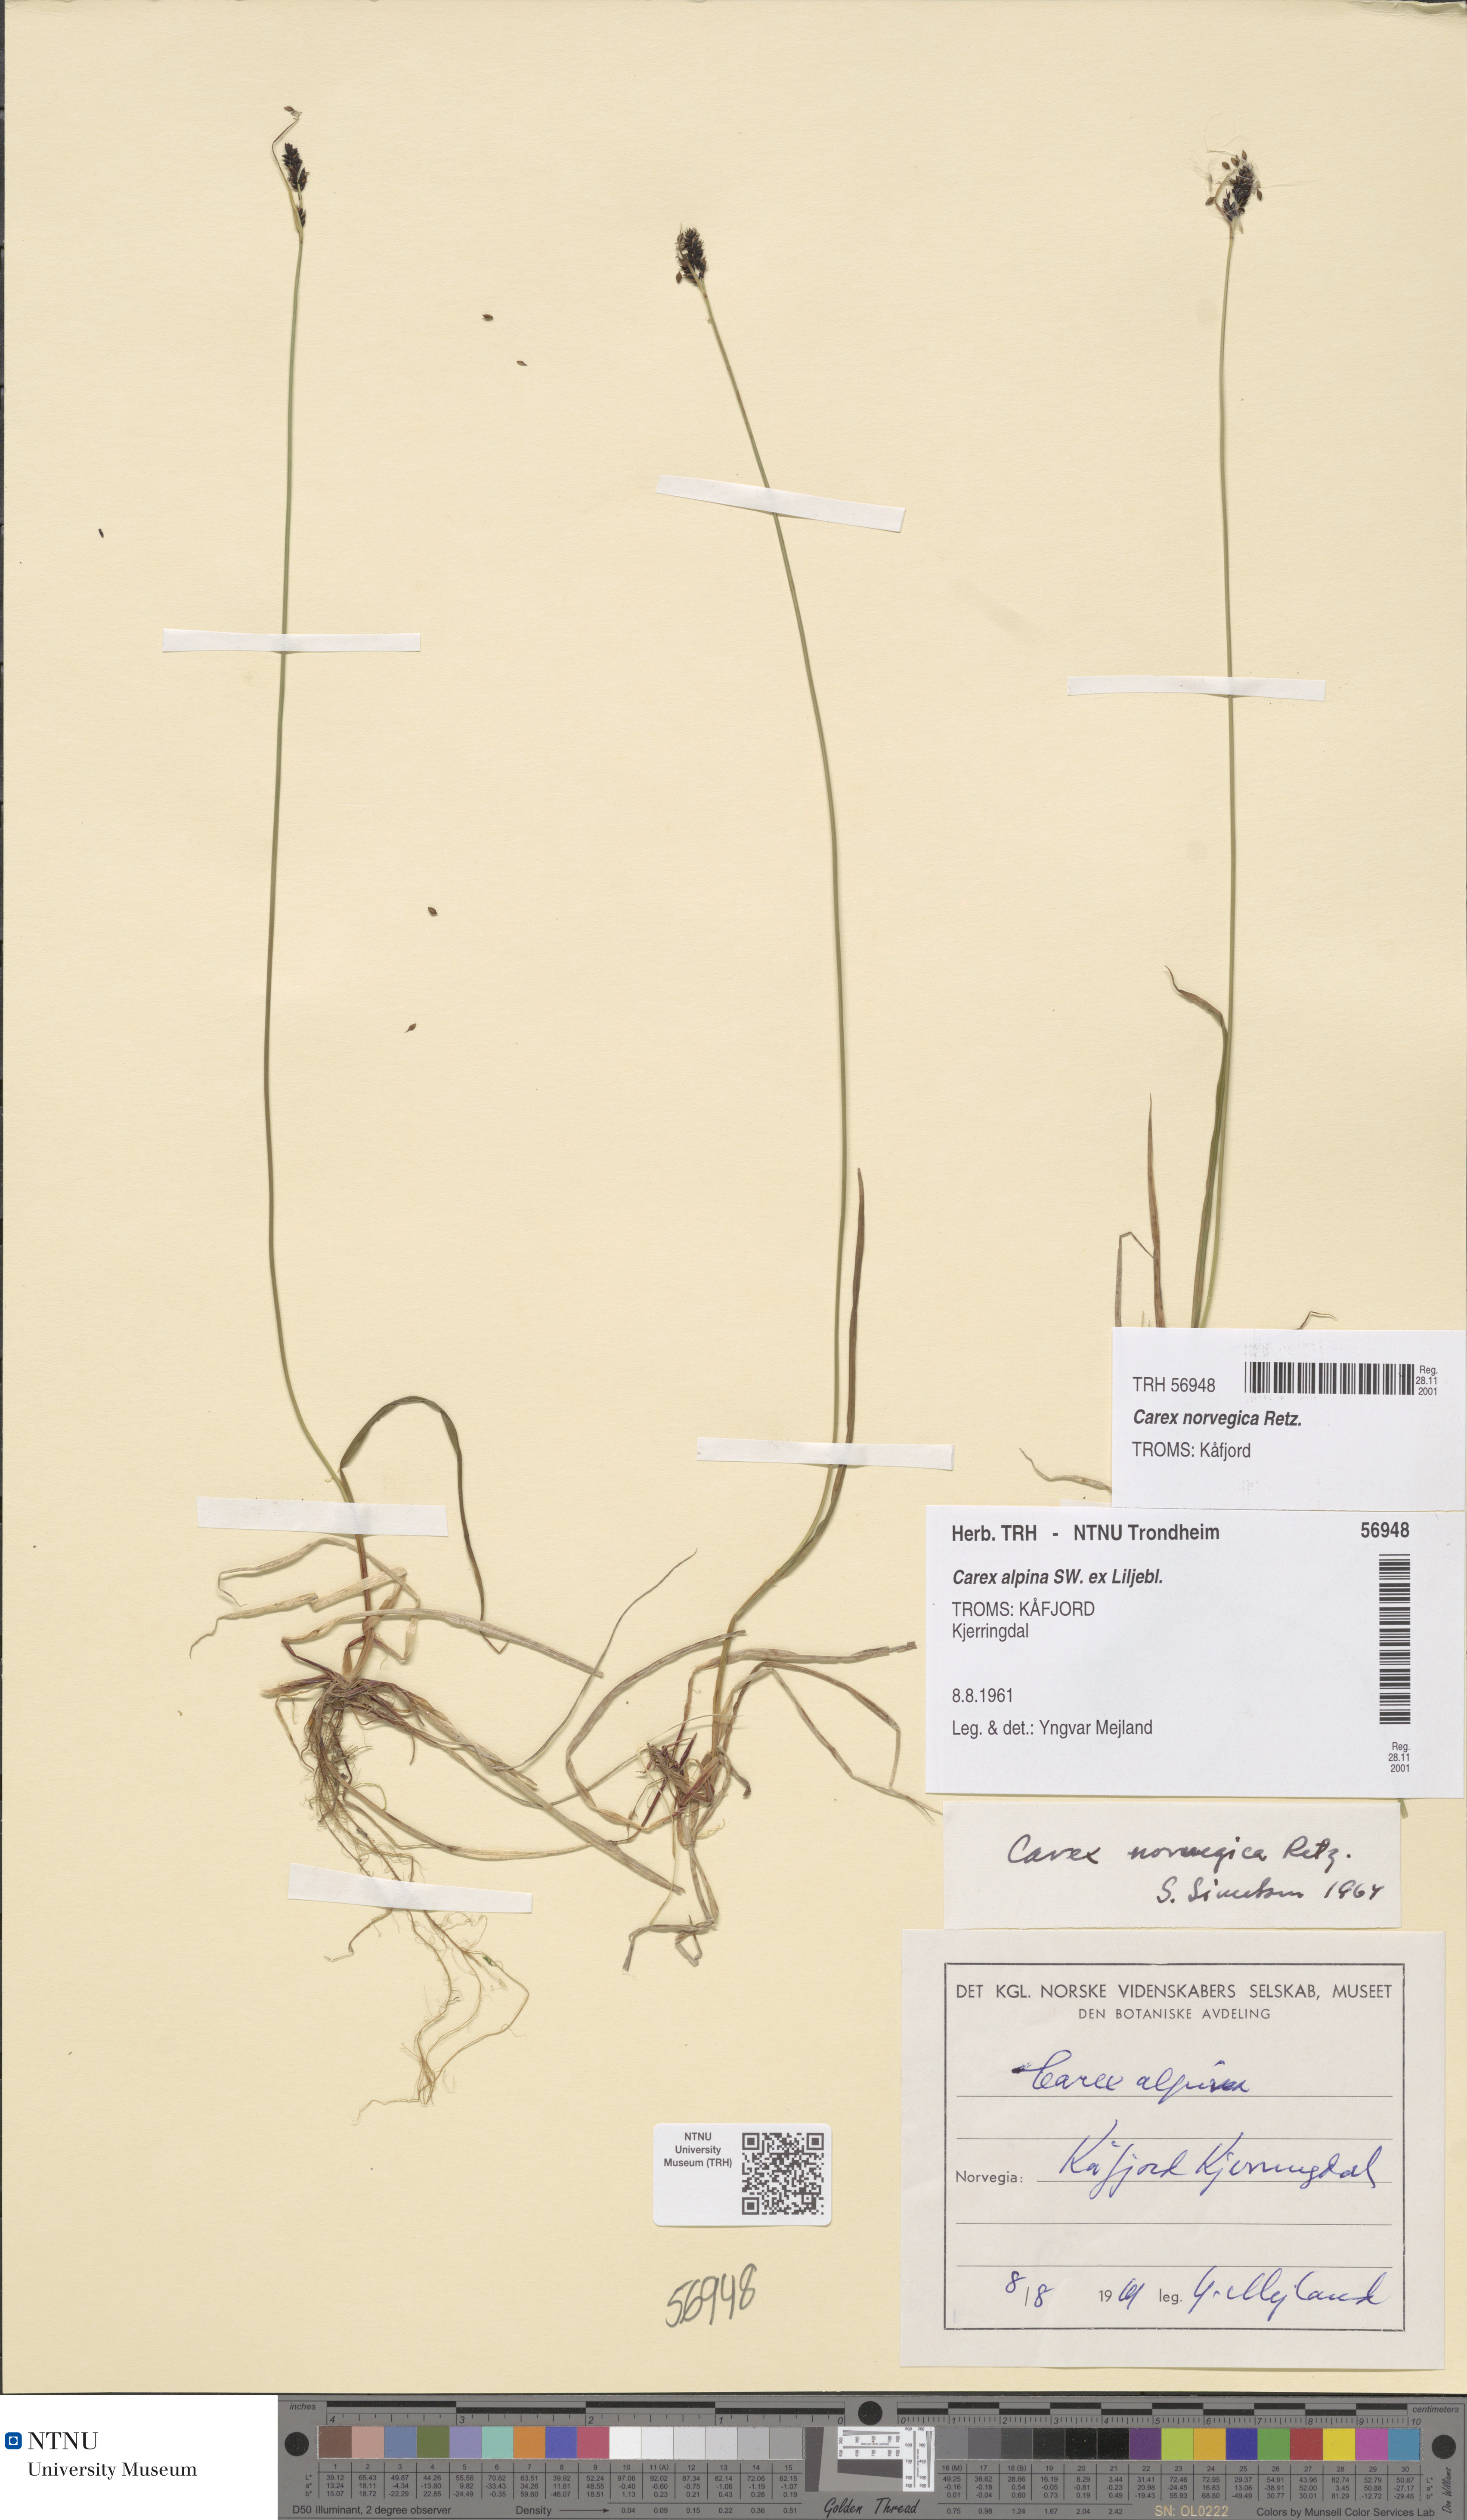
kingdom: Plantae
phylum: Tracheophyta
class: Liliopsida
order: Poales
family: Cyperaceae
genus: Carex
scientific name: Carex norvegica
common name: Close-headed alpine-sedge
